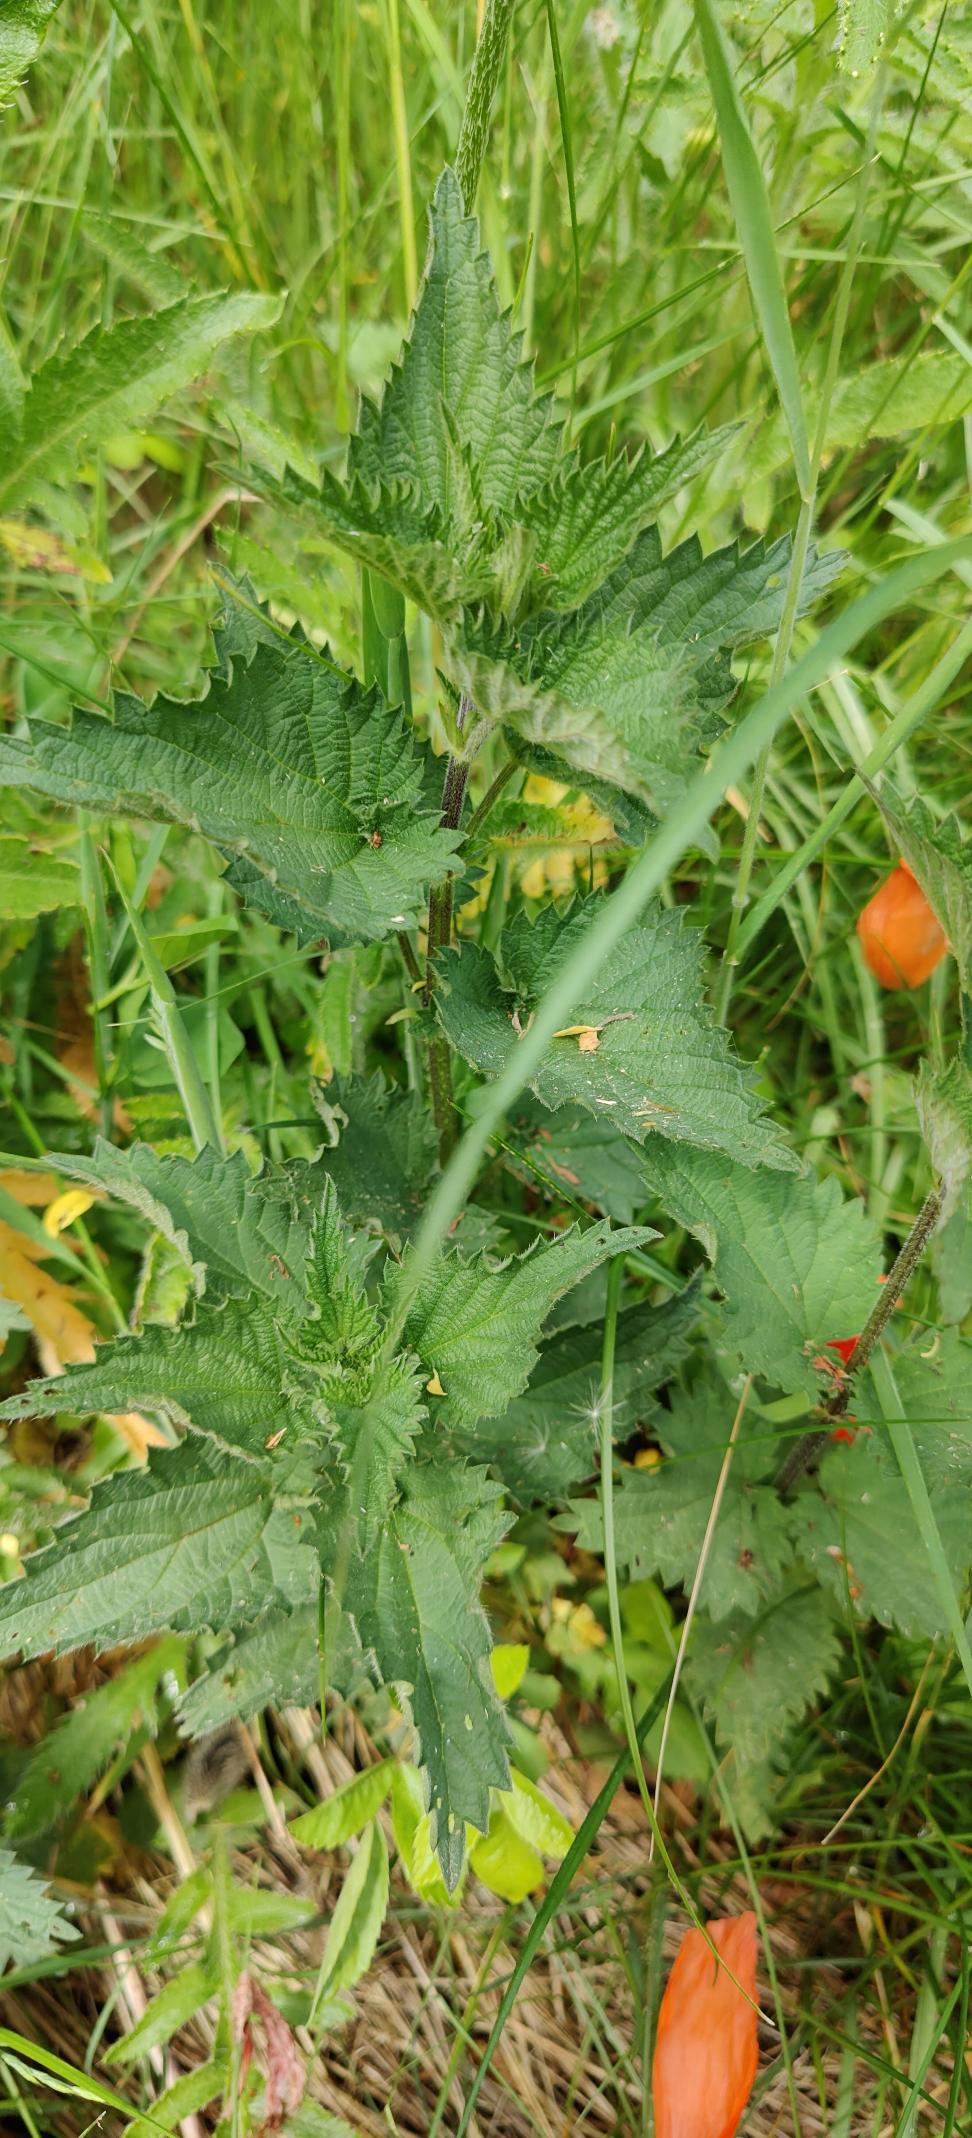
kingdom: Plantae
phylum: Tracheophyta
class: Magnoliopsida
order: Rosales
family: Urticaceae
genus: Urtica
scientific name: Urtica dioica
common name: Stor nælde
